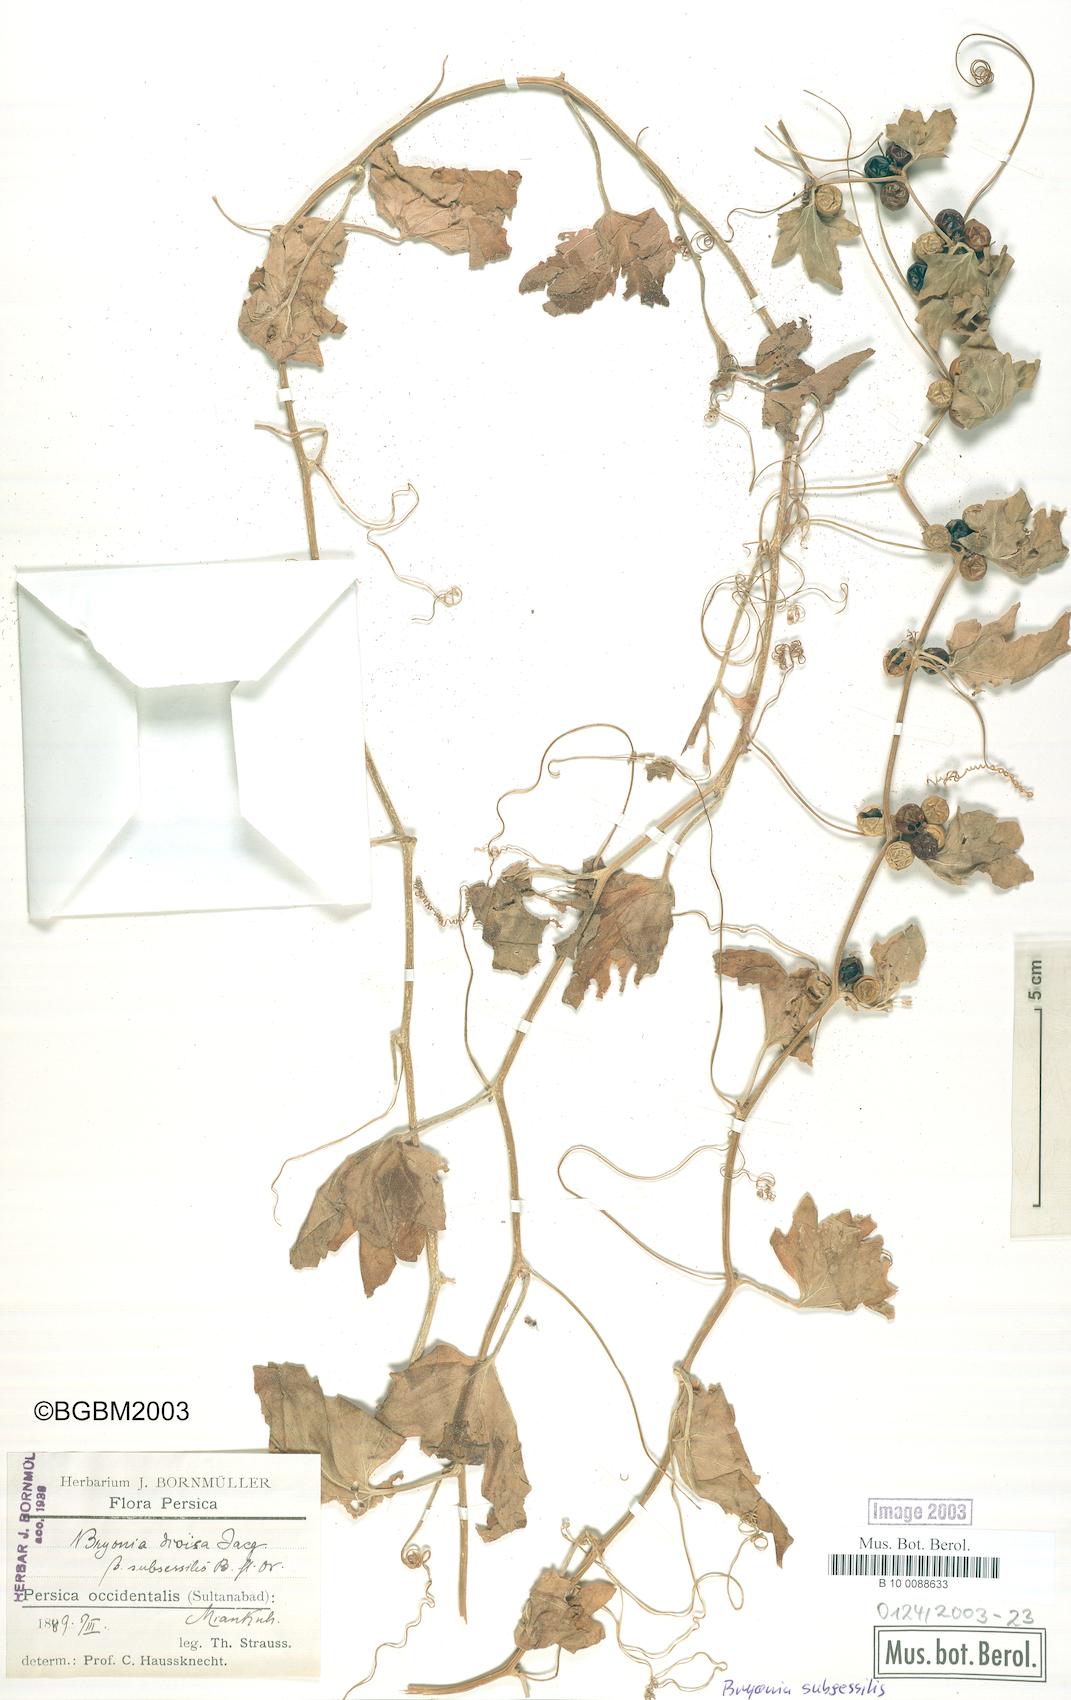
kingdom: Plantae
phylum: Tracheophyta
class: Magnoliopsida
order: Cucurbitales
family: Cucurbitaceae
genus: Bryonia
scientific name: Bryonia multiflora
